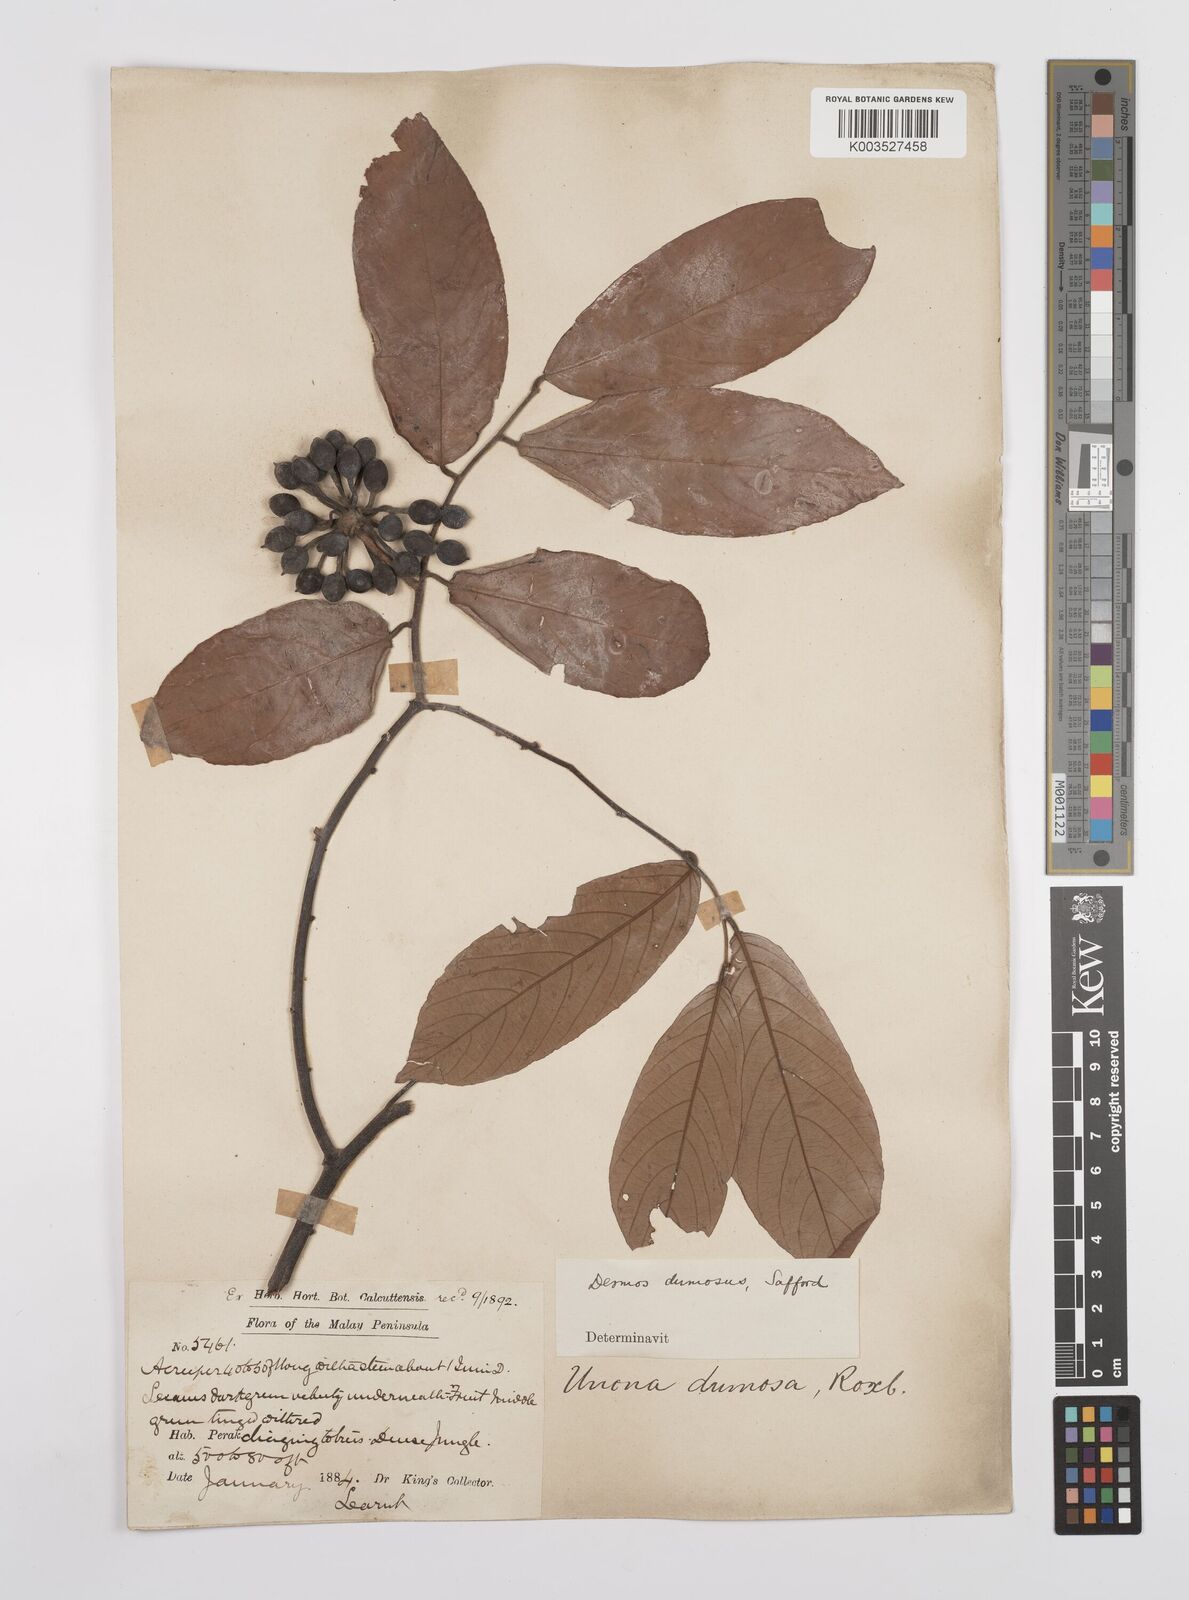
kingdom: Plantae
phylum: Tracheophyta
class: Magnoliopsida
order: Magnoliales
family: Annonaceae
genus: Desmos
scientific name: Desmos dumosus
